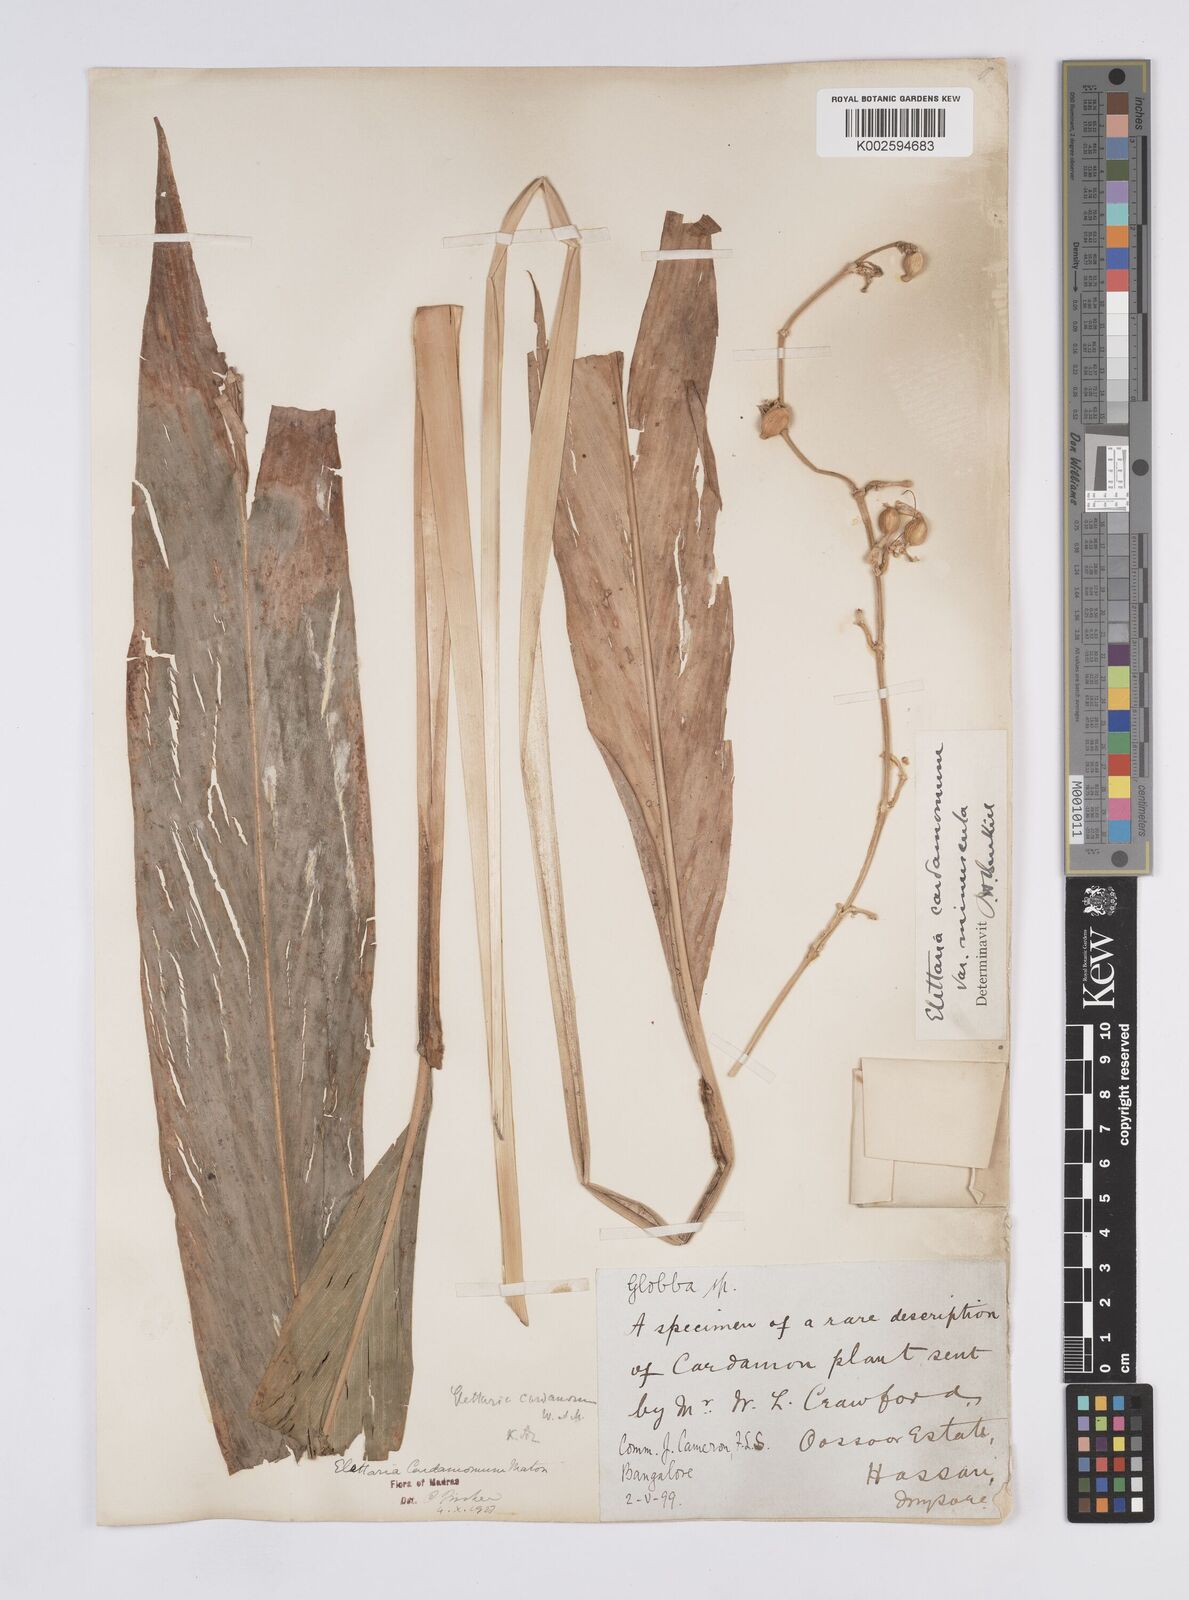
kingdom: Plantae
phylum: Tracheophyta
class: Liliopsida
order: Zingiberales
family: Zingiberaceae
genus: Elettaria
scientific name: Elettaria cardamomum
